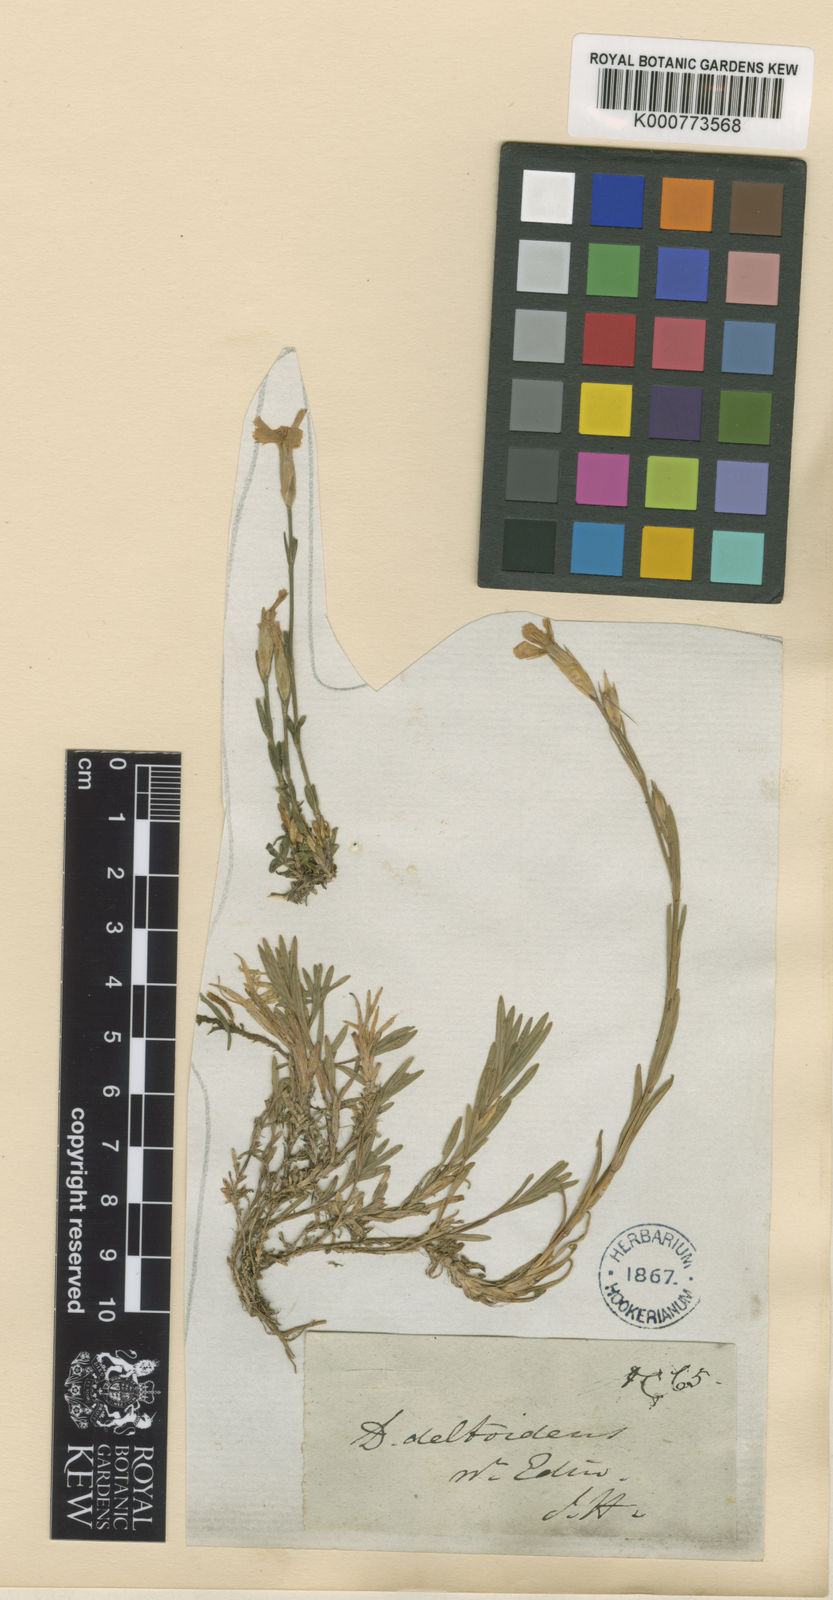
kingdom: Plantae
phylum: Tracheophyta
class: Magnoliopsida
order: Caryophyllales
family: Caryophyllaceae
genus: Dianthus
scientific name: Dianthus deltoides
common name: Maiden pink
